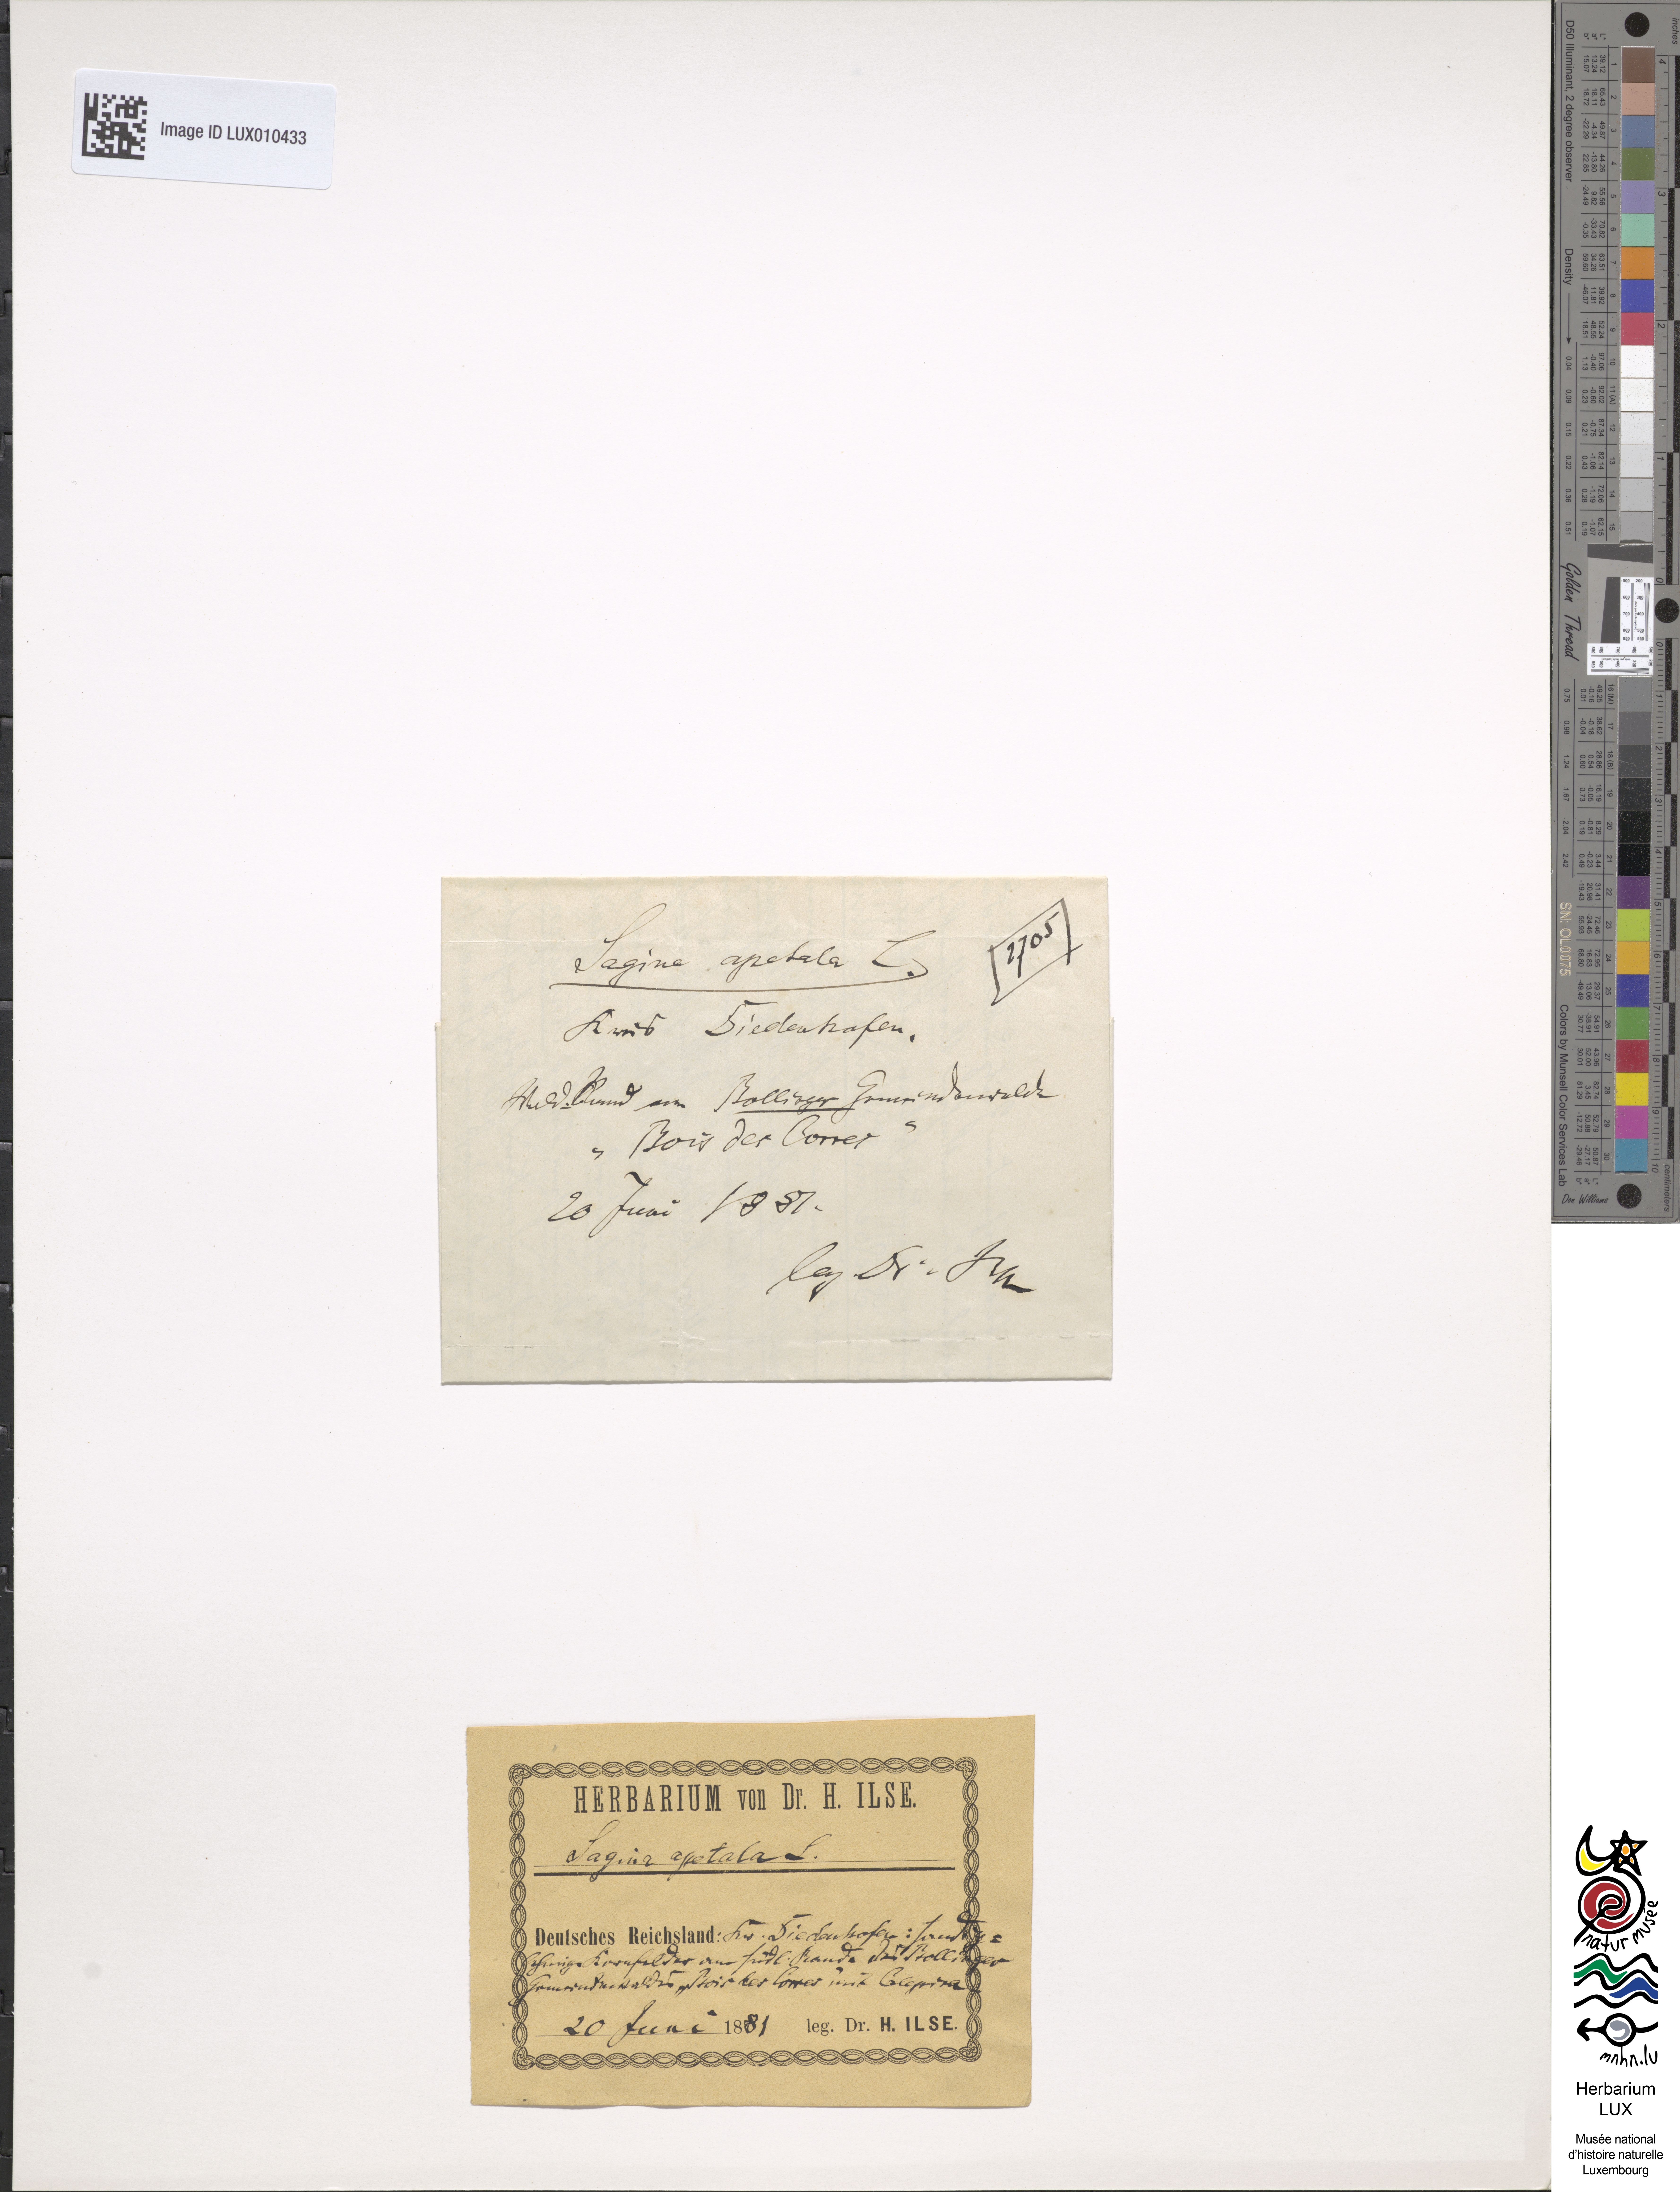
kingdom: Plantae
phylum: Tracheophyta
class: Magnoliopsida
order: Caryophyllales
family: Caryophyllaceae
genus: Sagina
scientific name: Sagina apetala
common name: Annual pearlwort
